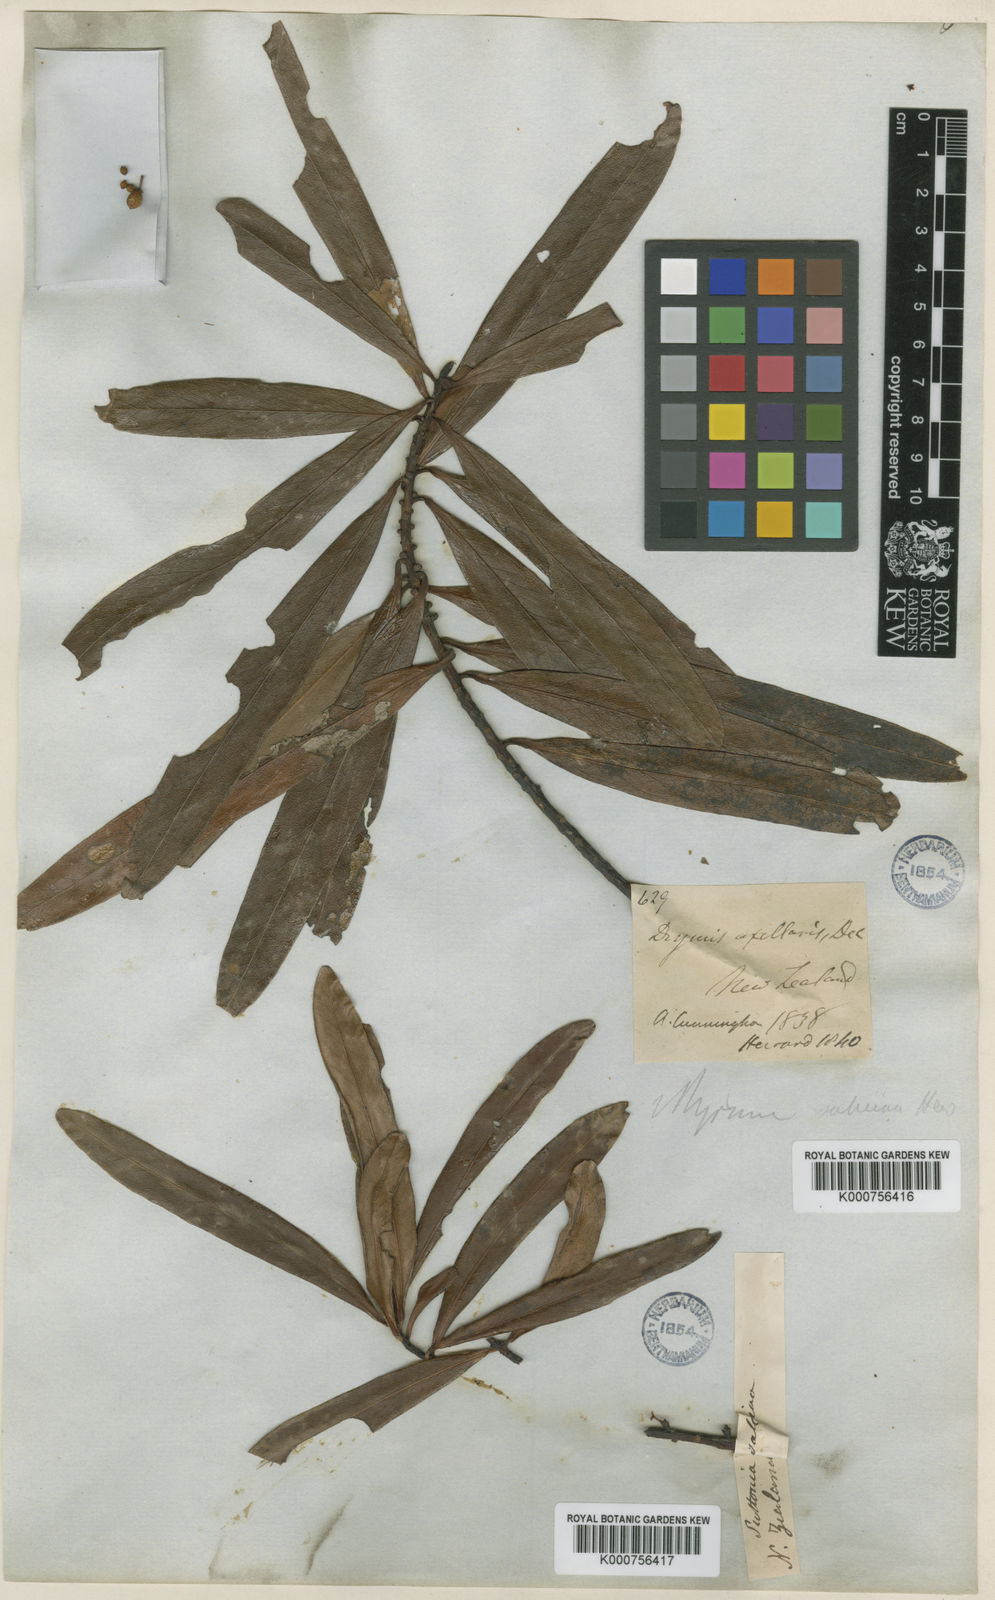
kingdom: Plantae
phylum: Tracheophyta
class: Magnoliopsida
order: Ericales
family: Primulaceae
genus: Myrsine
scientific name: Myrsine salicina
